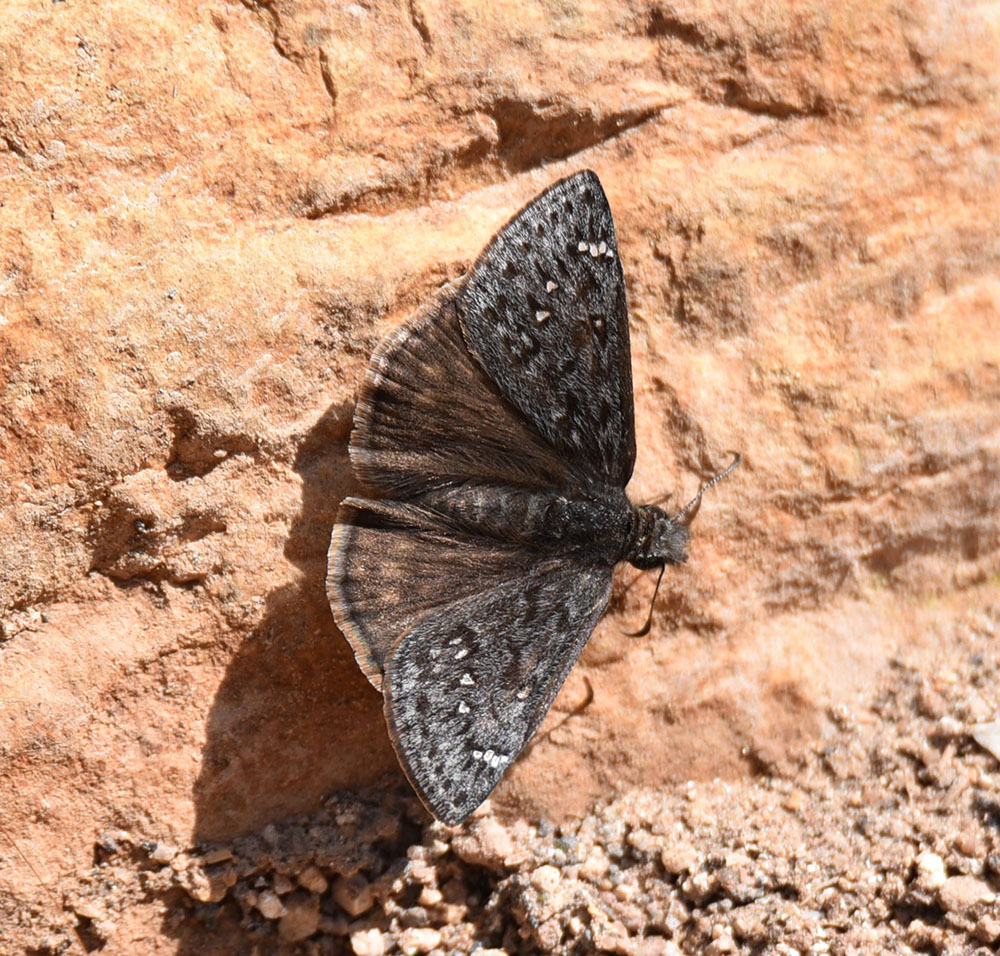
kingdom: Animalia
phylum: Arthropoda
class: Insecta
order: Lepidoptera
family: Hesperiidae
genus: Erynnis
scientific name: Erynnis
